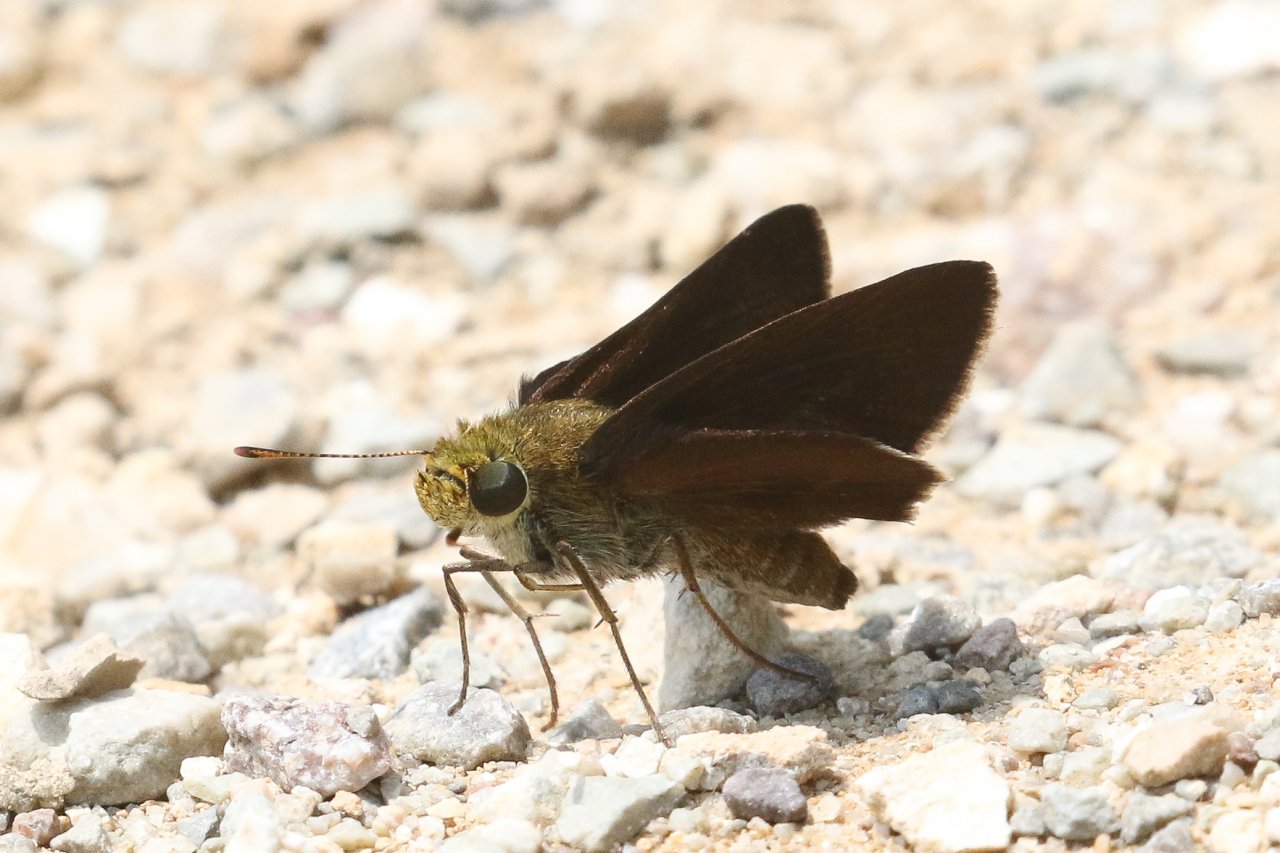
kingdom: Animalia
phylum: Arthropoda
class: Insecta
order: Lepidoptera
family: Hesperiidae
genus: Euphyes
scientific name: Euphyes vestris
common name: Dun Skipper
